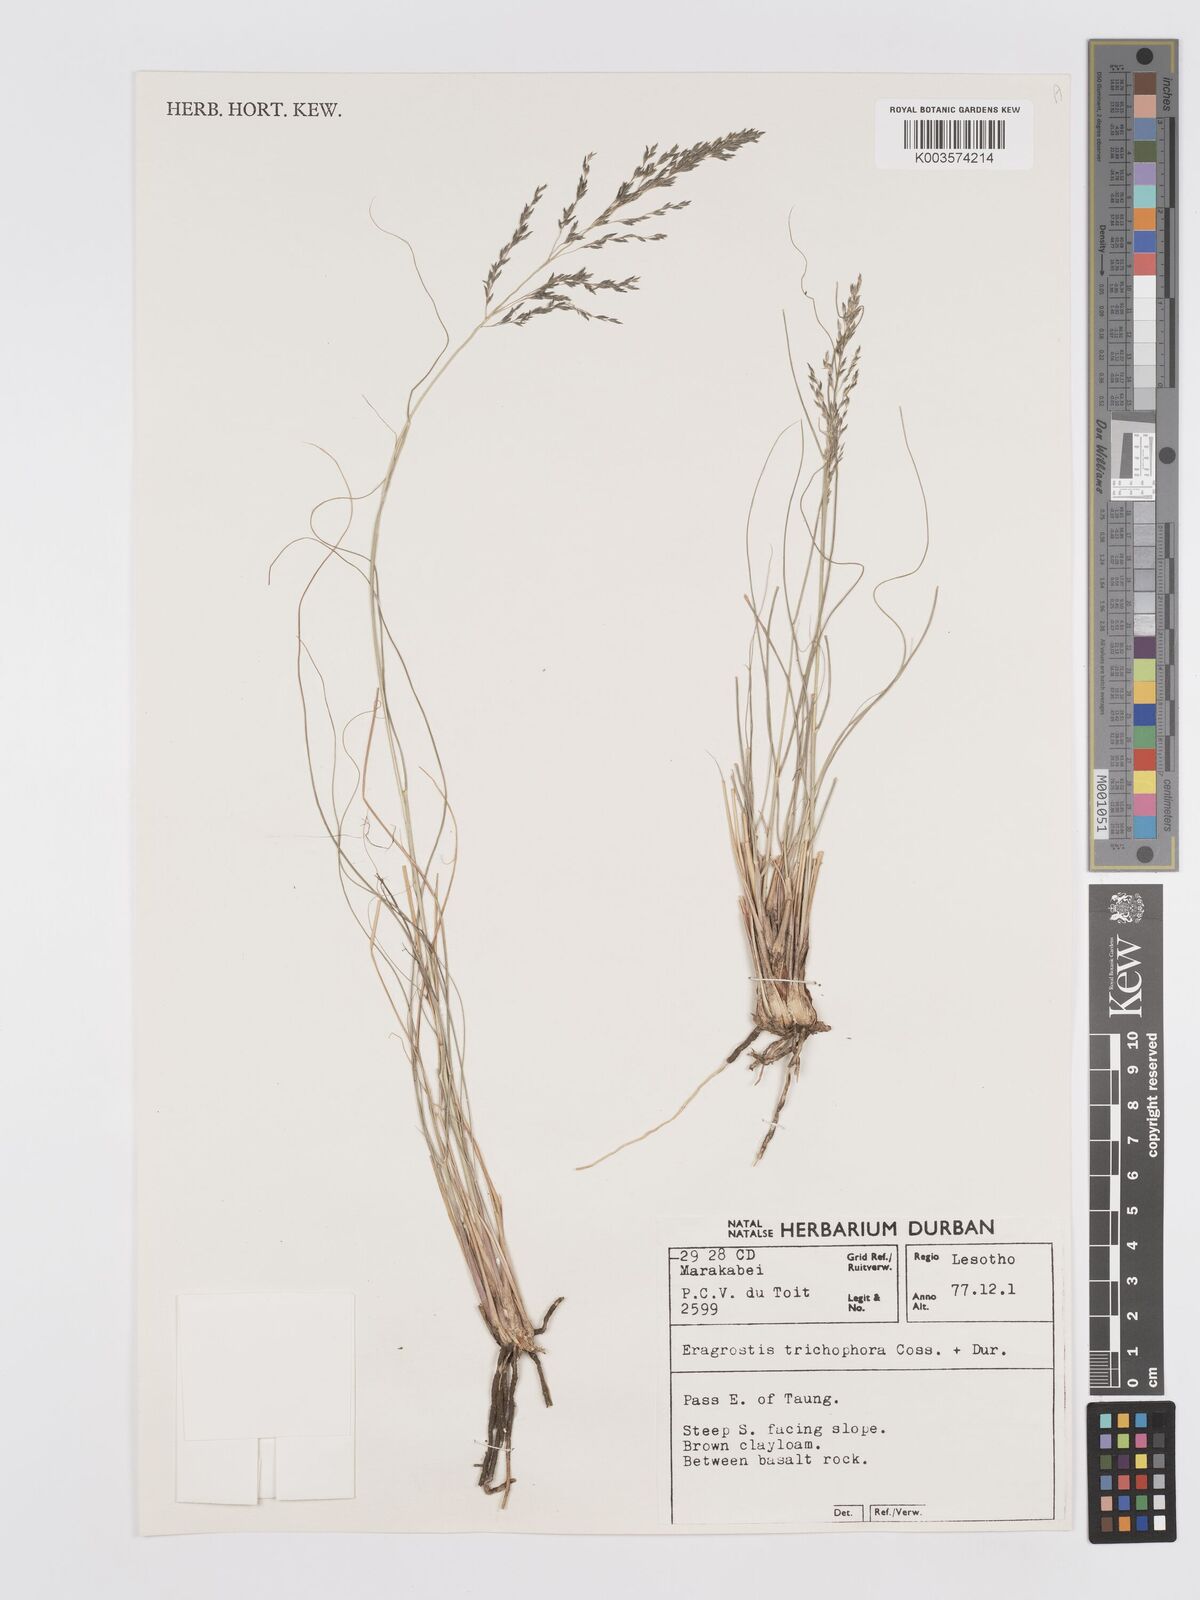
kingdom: Plantae
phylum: Tracheophyta
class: Liliopsida
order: Poales
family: Poaceae
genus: Eragrostis
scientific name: Eragrostis cylindriflora
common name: Cylinderflower lovegrass
